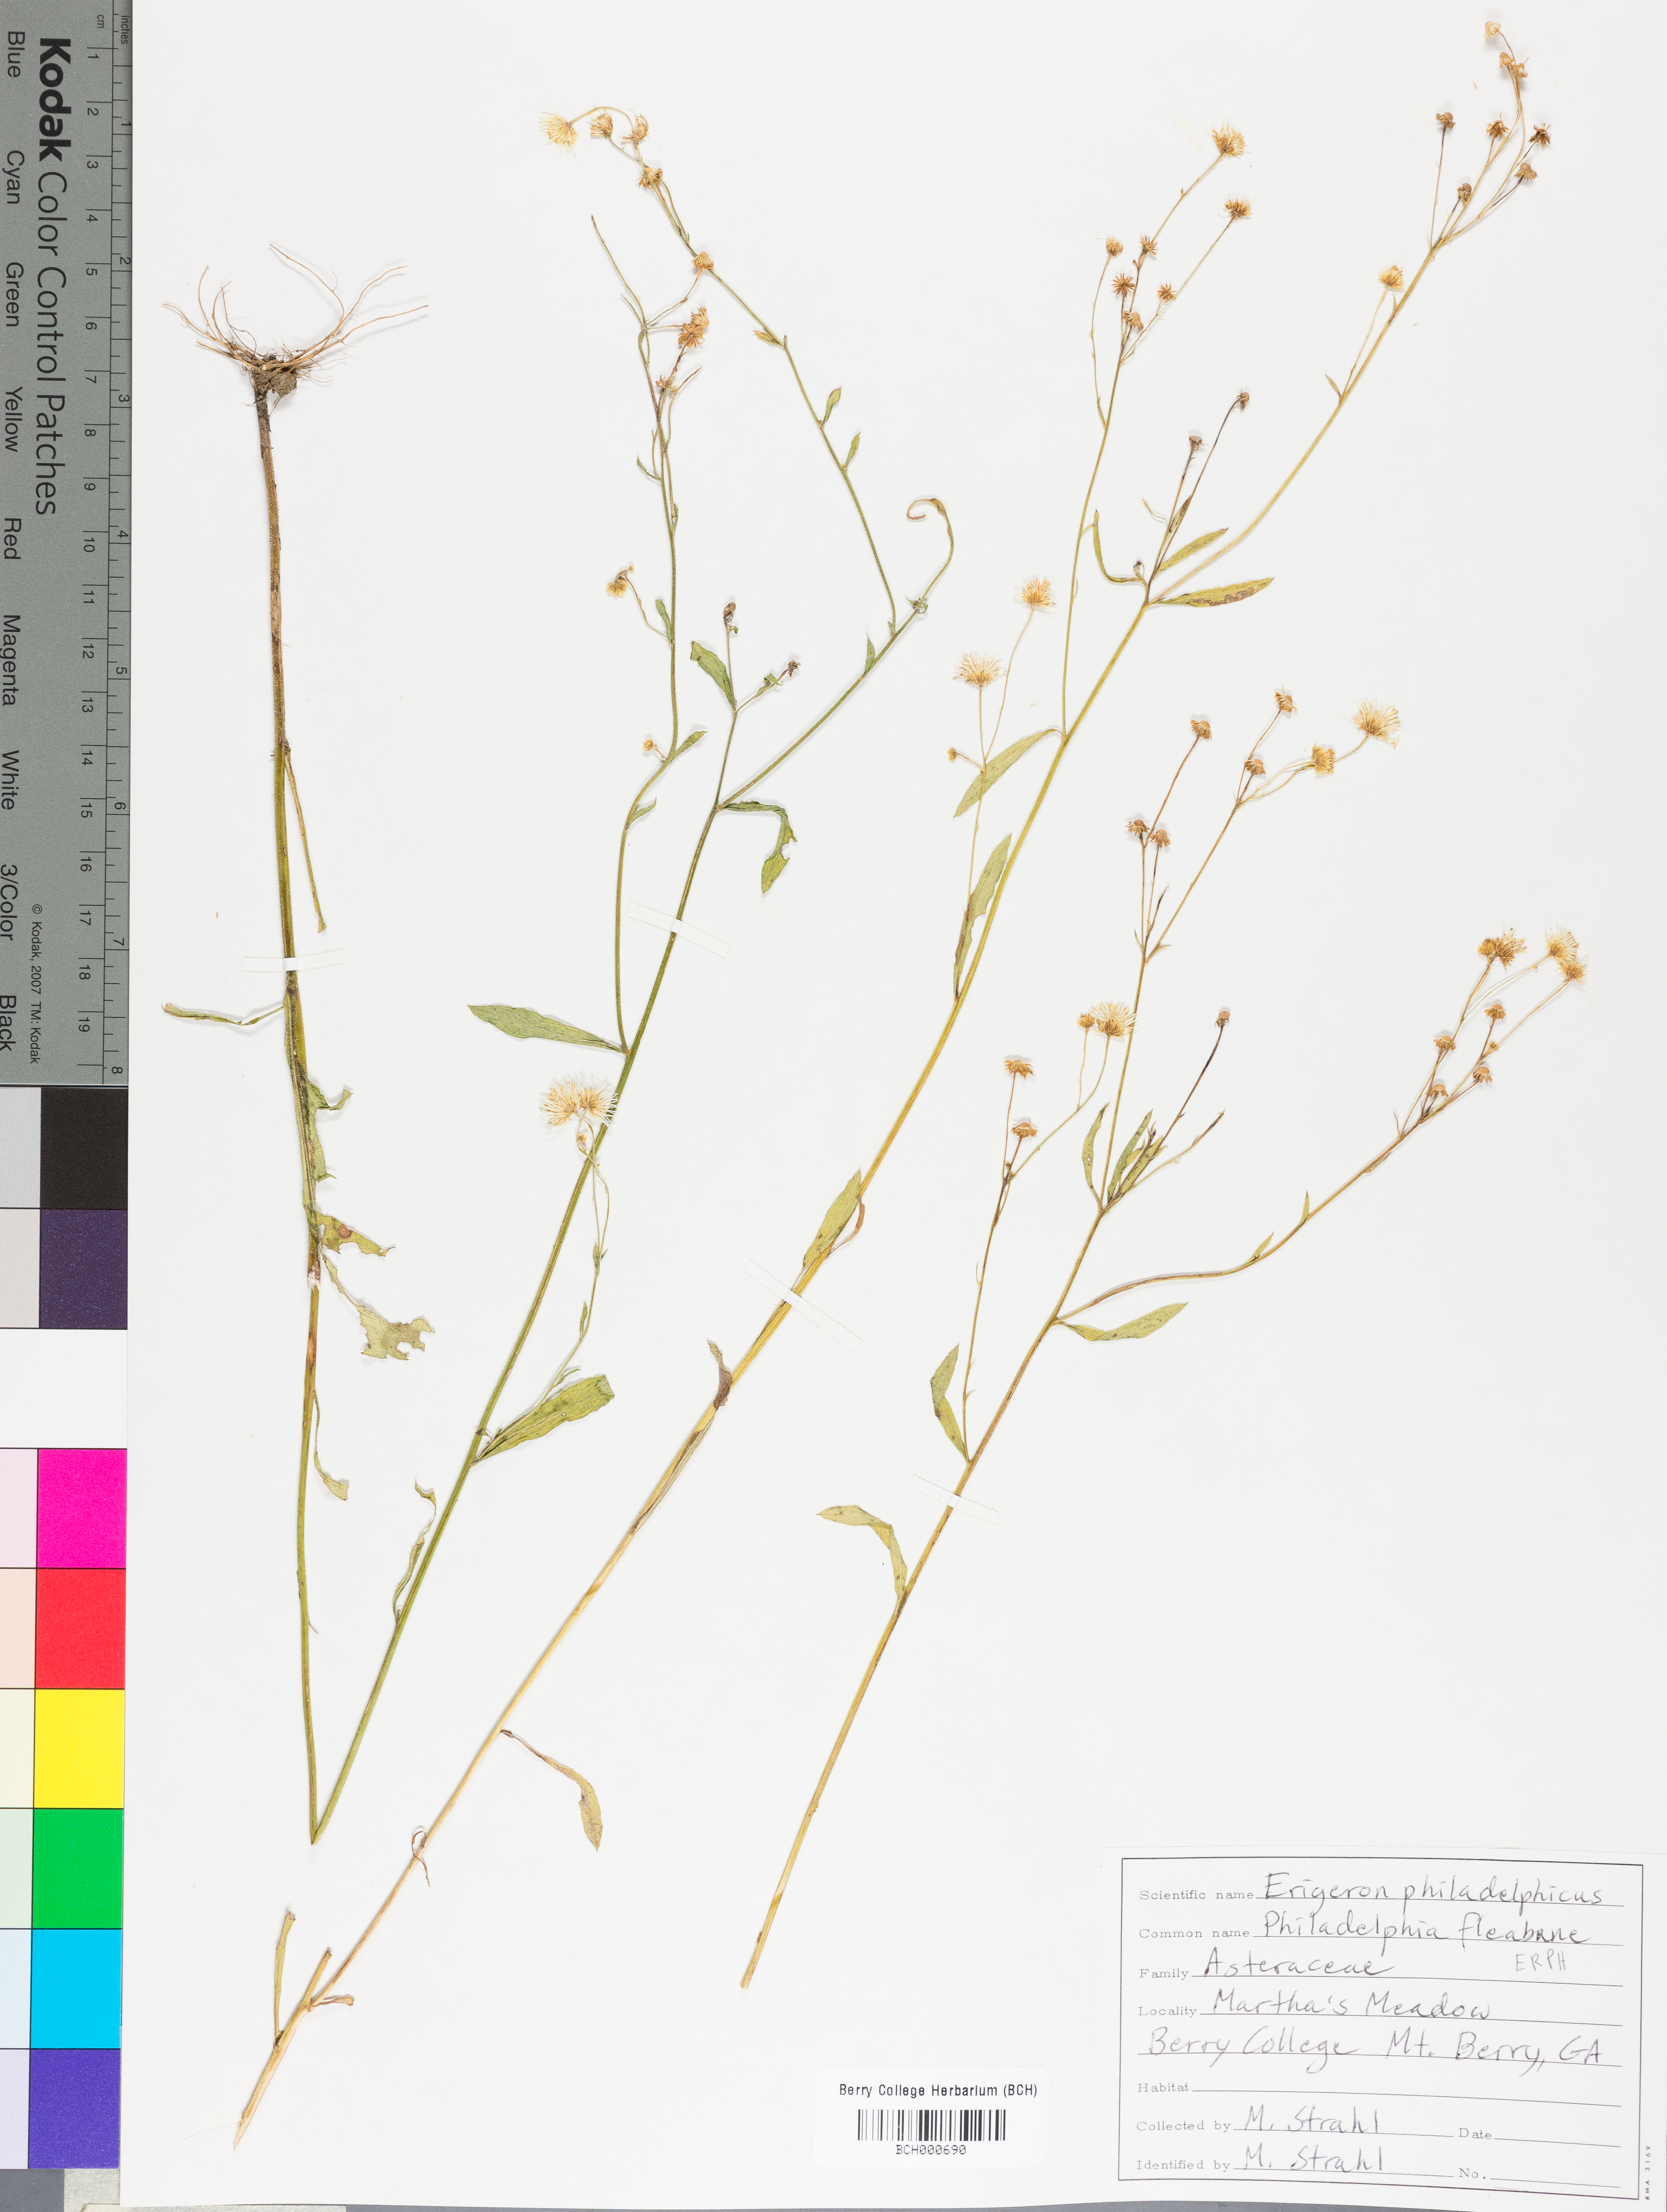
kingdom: Plantae
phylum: Tracheophyta
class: Magnoliopsida
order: Asterales
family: Asteraceae
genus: Erigeron
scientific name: Erigeron philadelphicus
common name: Robin's-plantain
